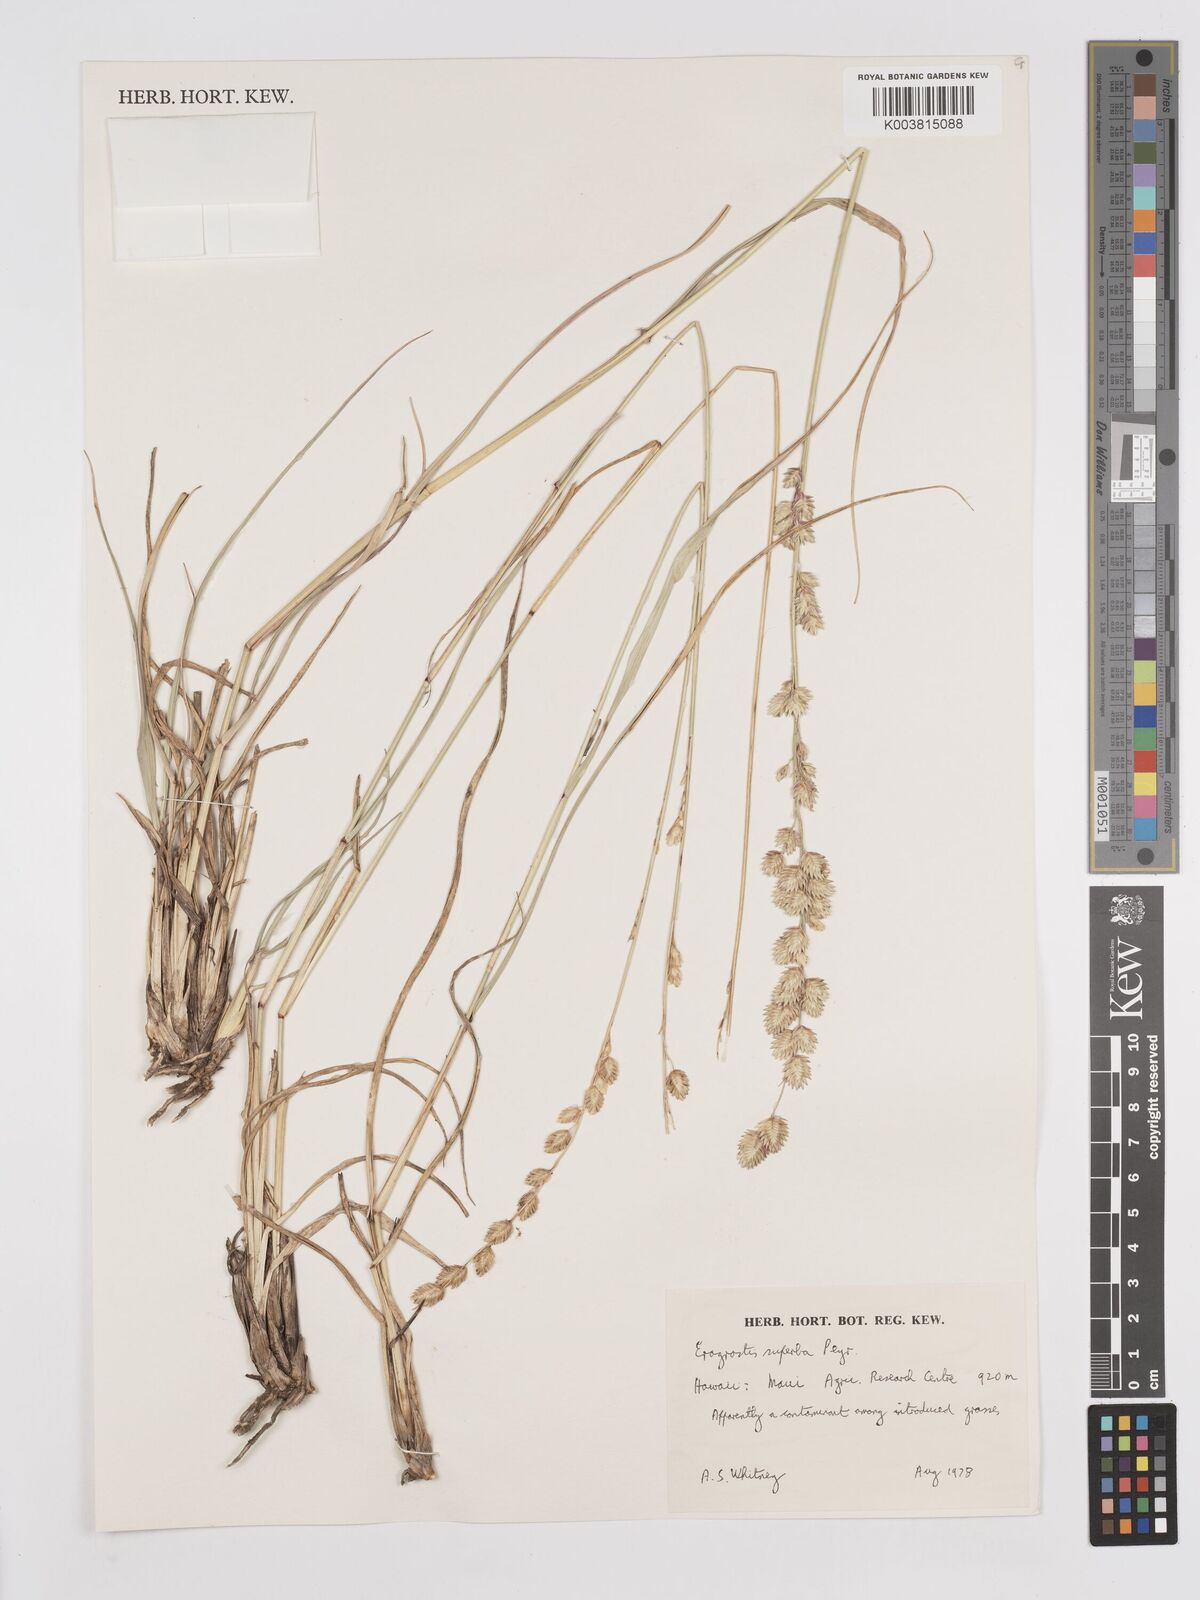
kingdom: Plantae
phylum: Tracheophyta
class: Liliopsida
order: Poales
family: Poaceae
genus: Eragrostis
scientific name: Eragrostis superba
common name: Wilman lovegrass
